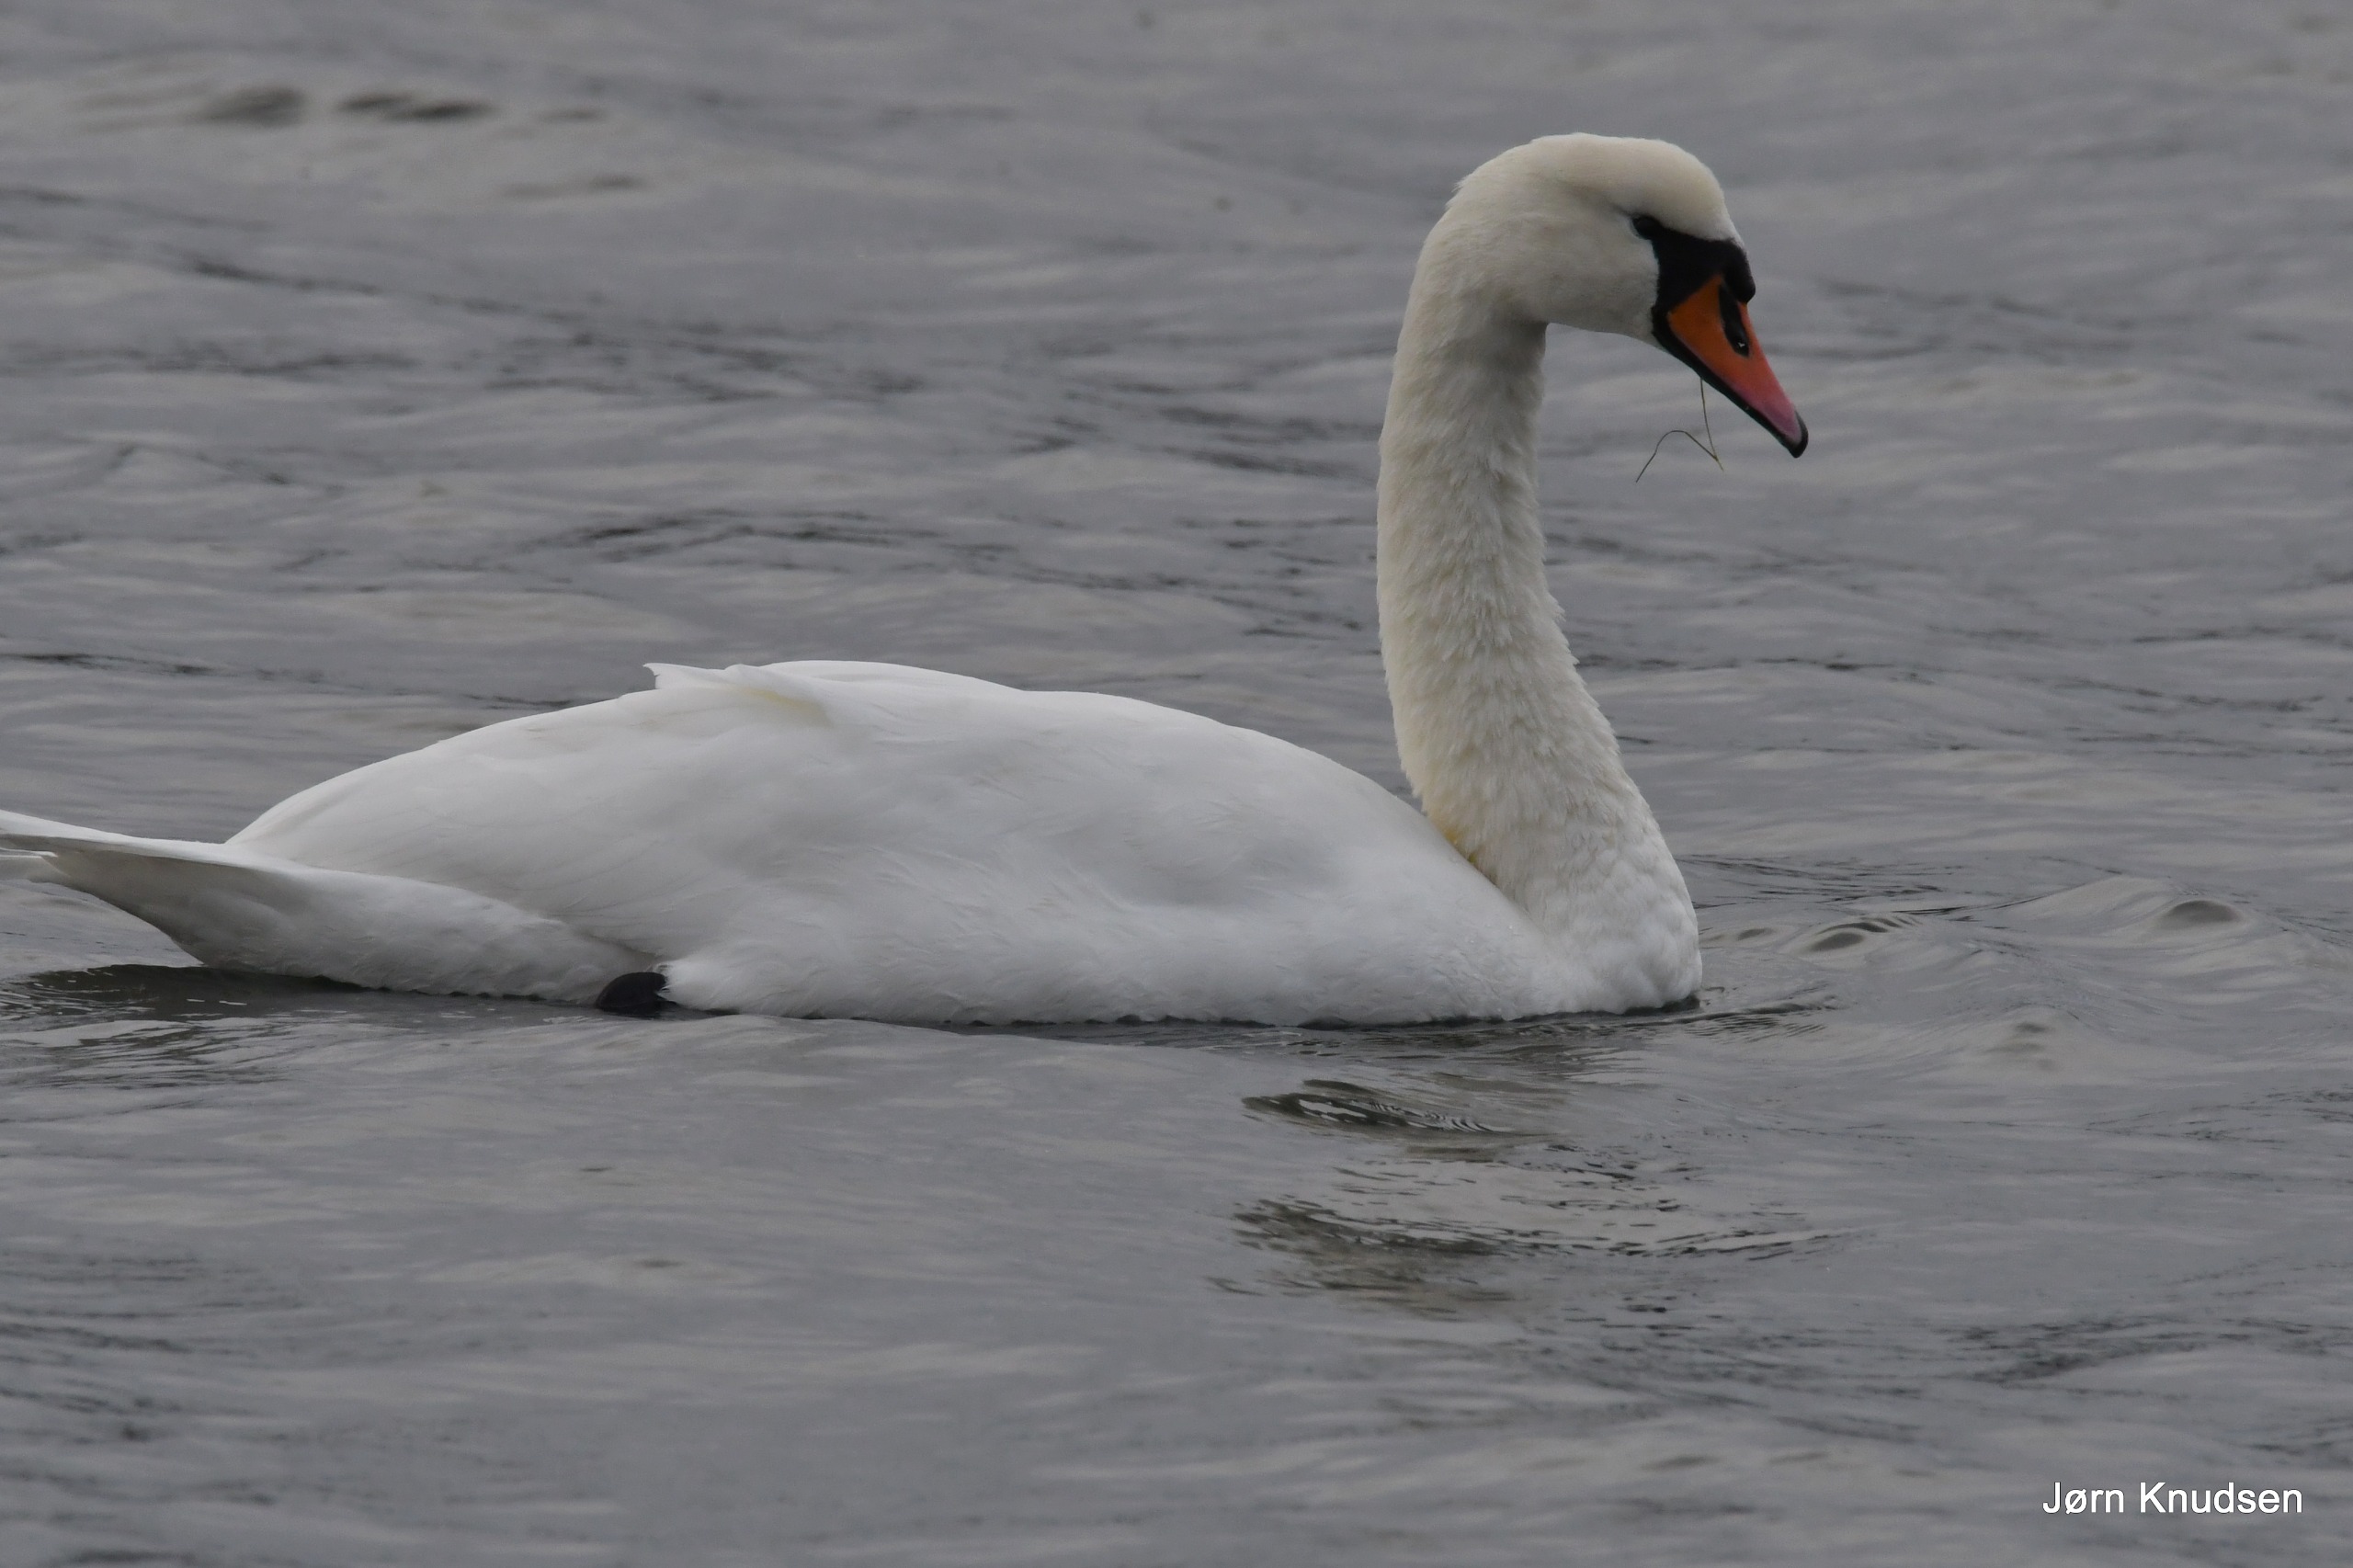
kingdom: Animalia
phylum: Chordata
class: Aves
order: Anseriformes
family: Anatidae
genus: Cygnus
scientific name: Cygnus olor
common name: Knopsvane
